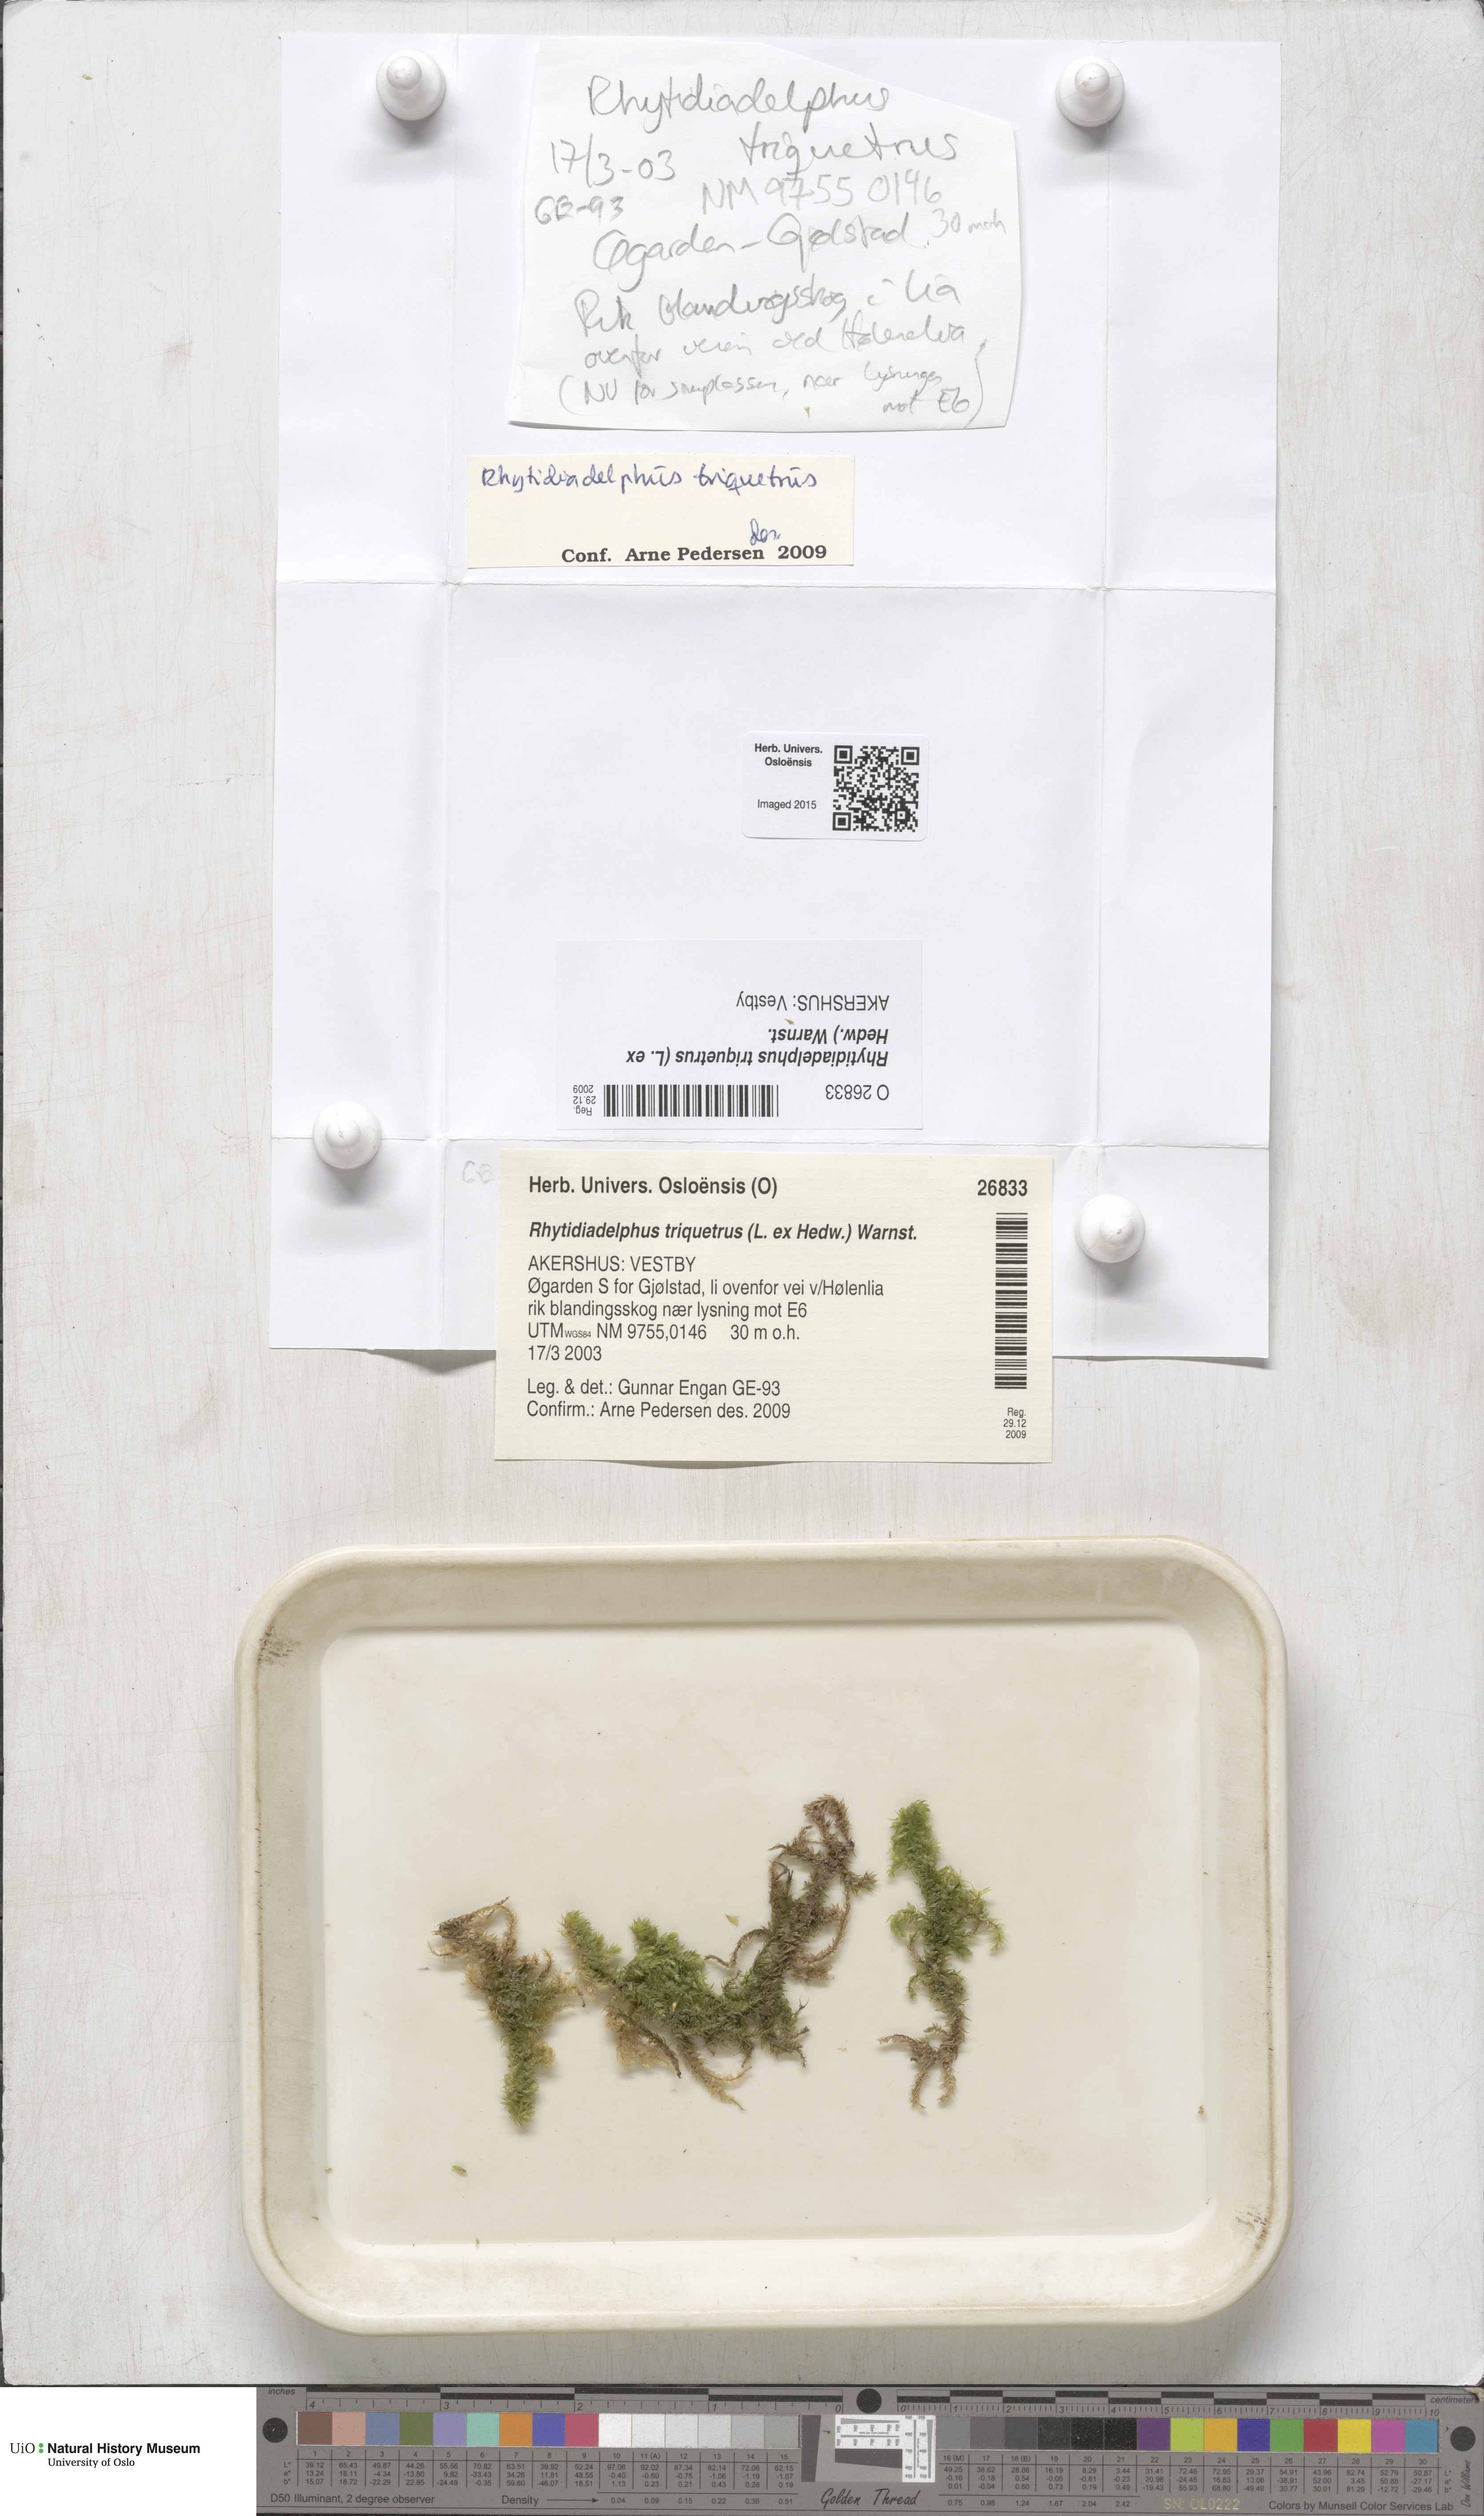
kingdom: Plantae
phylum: Bryophyta
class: Bryopsida
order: Hypnales
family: Hylocomiaceae
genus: Hylocomiadelphus
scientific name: Hylocomiadelphus triquetrus
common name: Rough goose neck moss
